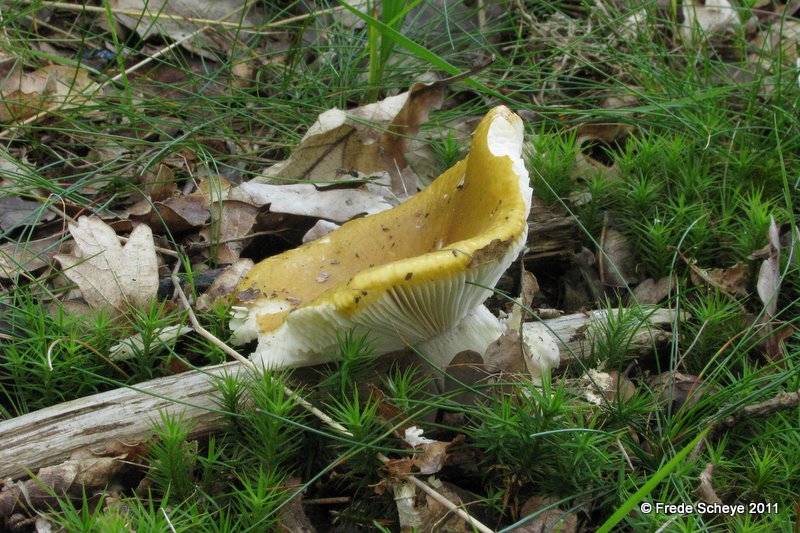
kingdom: Fungi
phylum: Basidiomycota
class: Agaricomycetes
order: Russulales
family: Russulaceae
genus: Russula
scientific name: Russula ochroleuca
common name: okkergul skørhat
